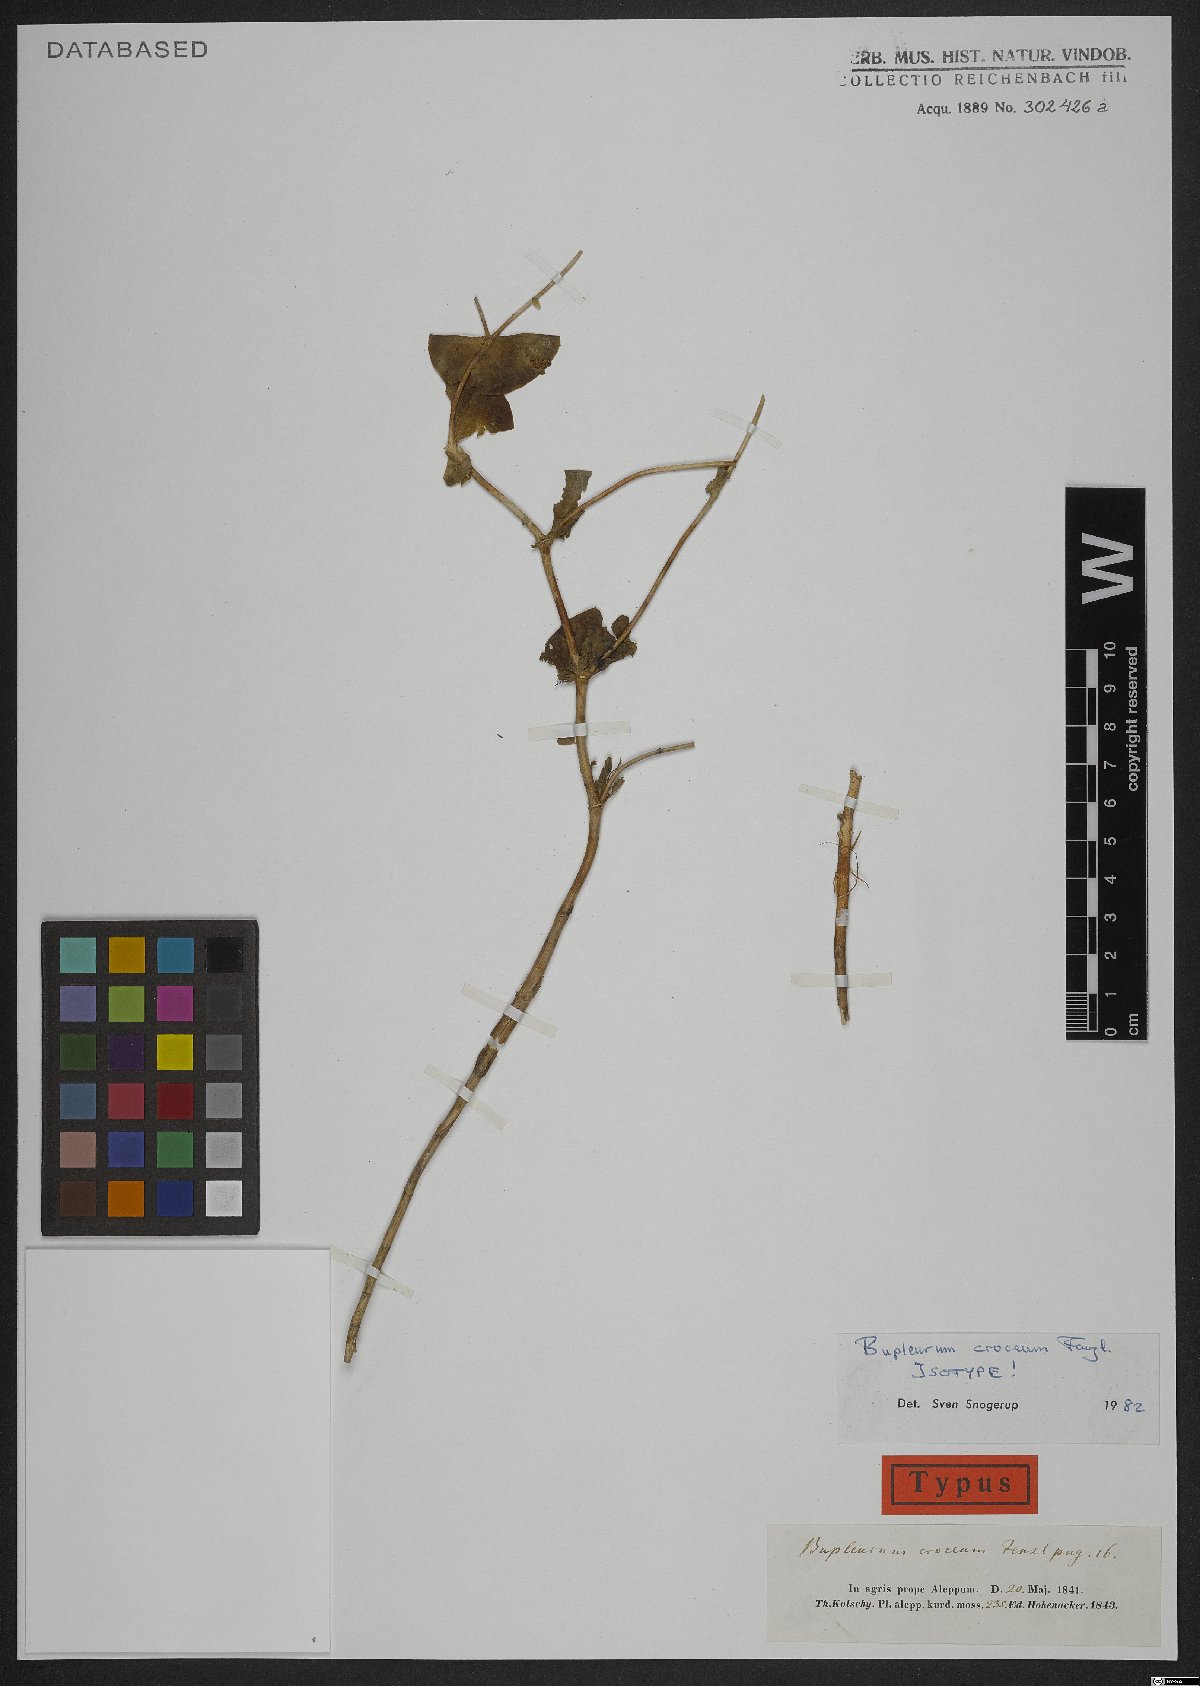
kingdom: Plantae
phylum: Tracheophyta
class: Magnoliopsida
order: Apiales
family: Apiaceae
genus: Bupleurum
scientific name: Bupleurum croceum
